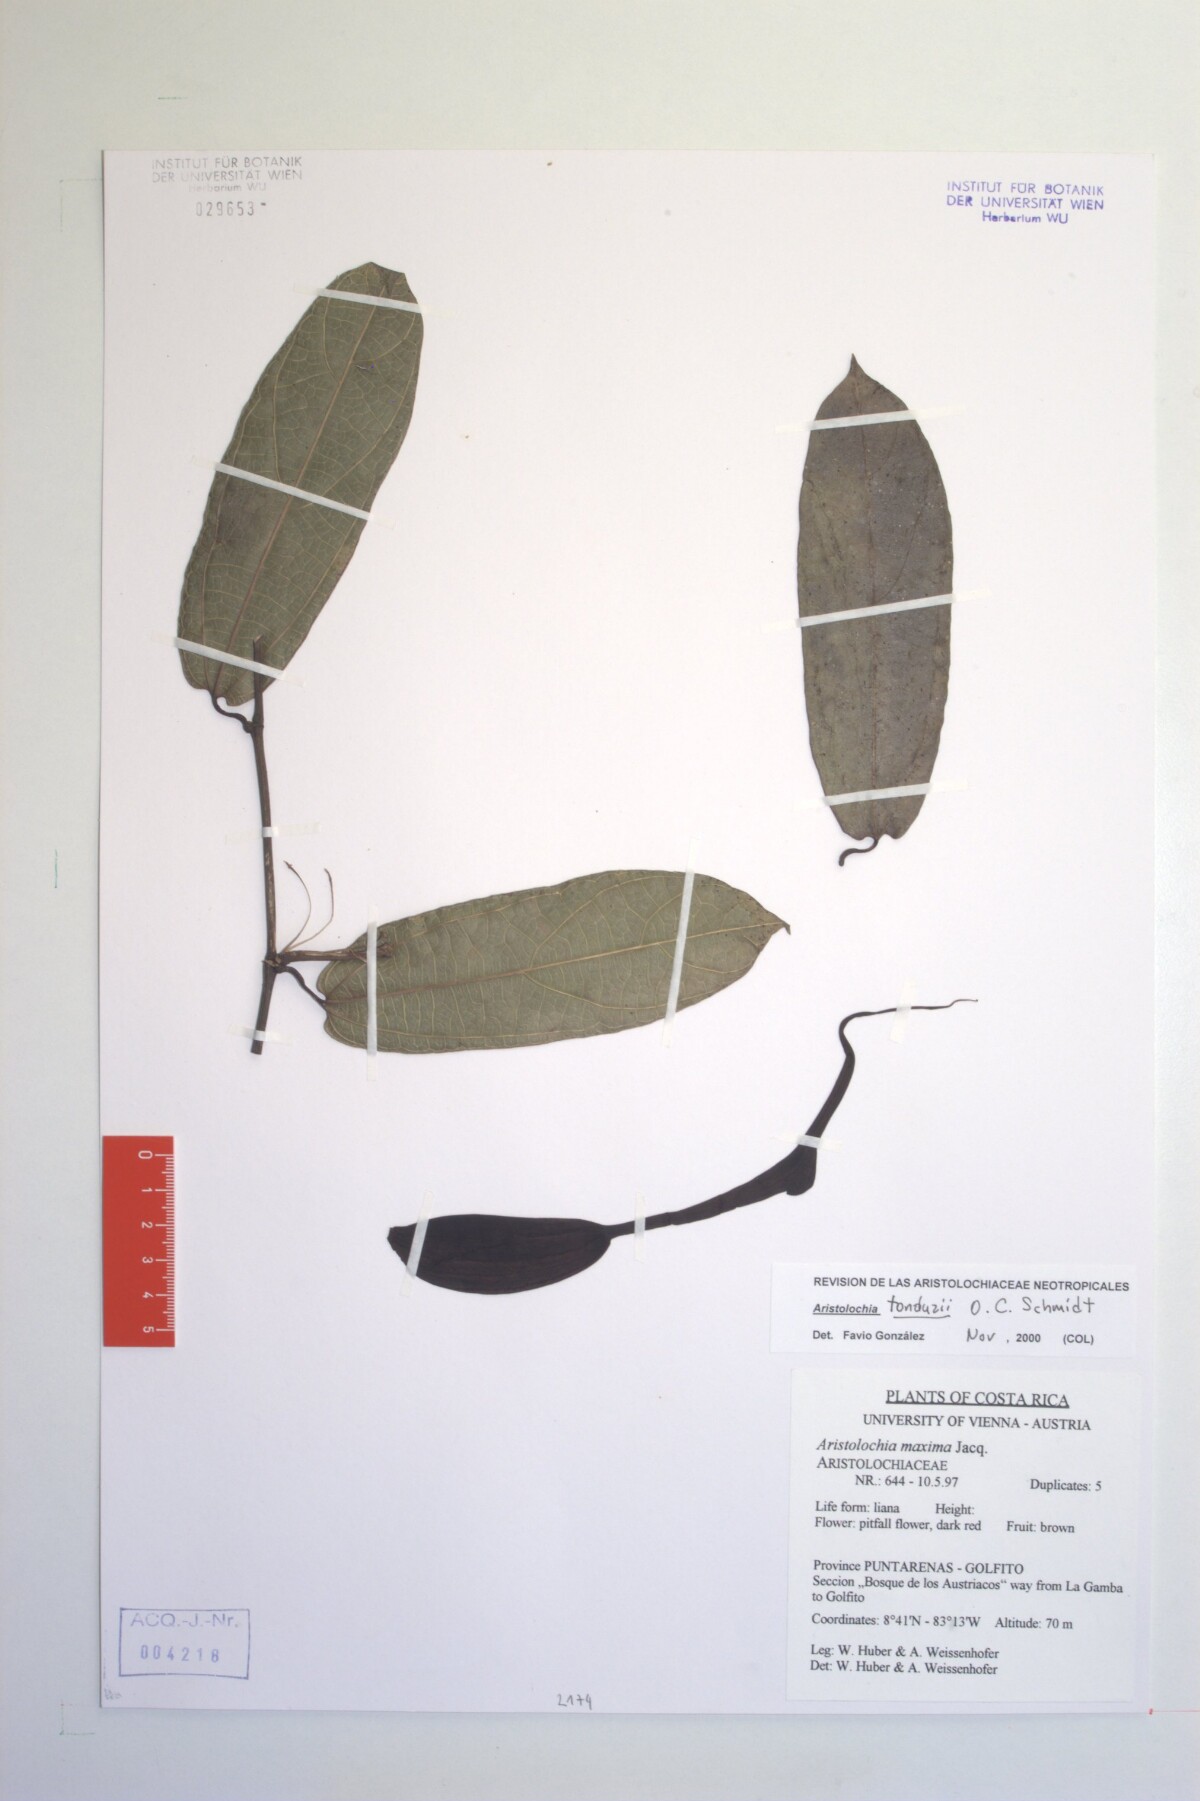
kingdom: Plantae
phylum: Tracheophyta
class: Magnoliopsida
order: Piperales
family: Aristolochiaceae
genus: Aristolochia
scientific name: Aristolochia tonduzii
